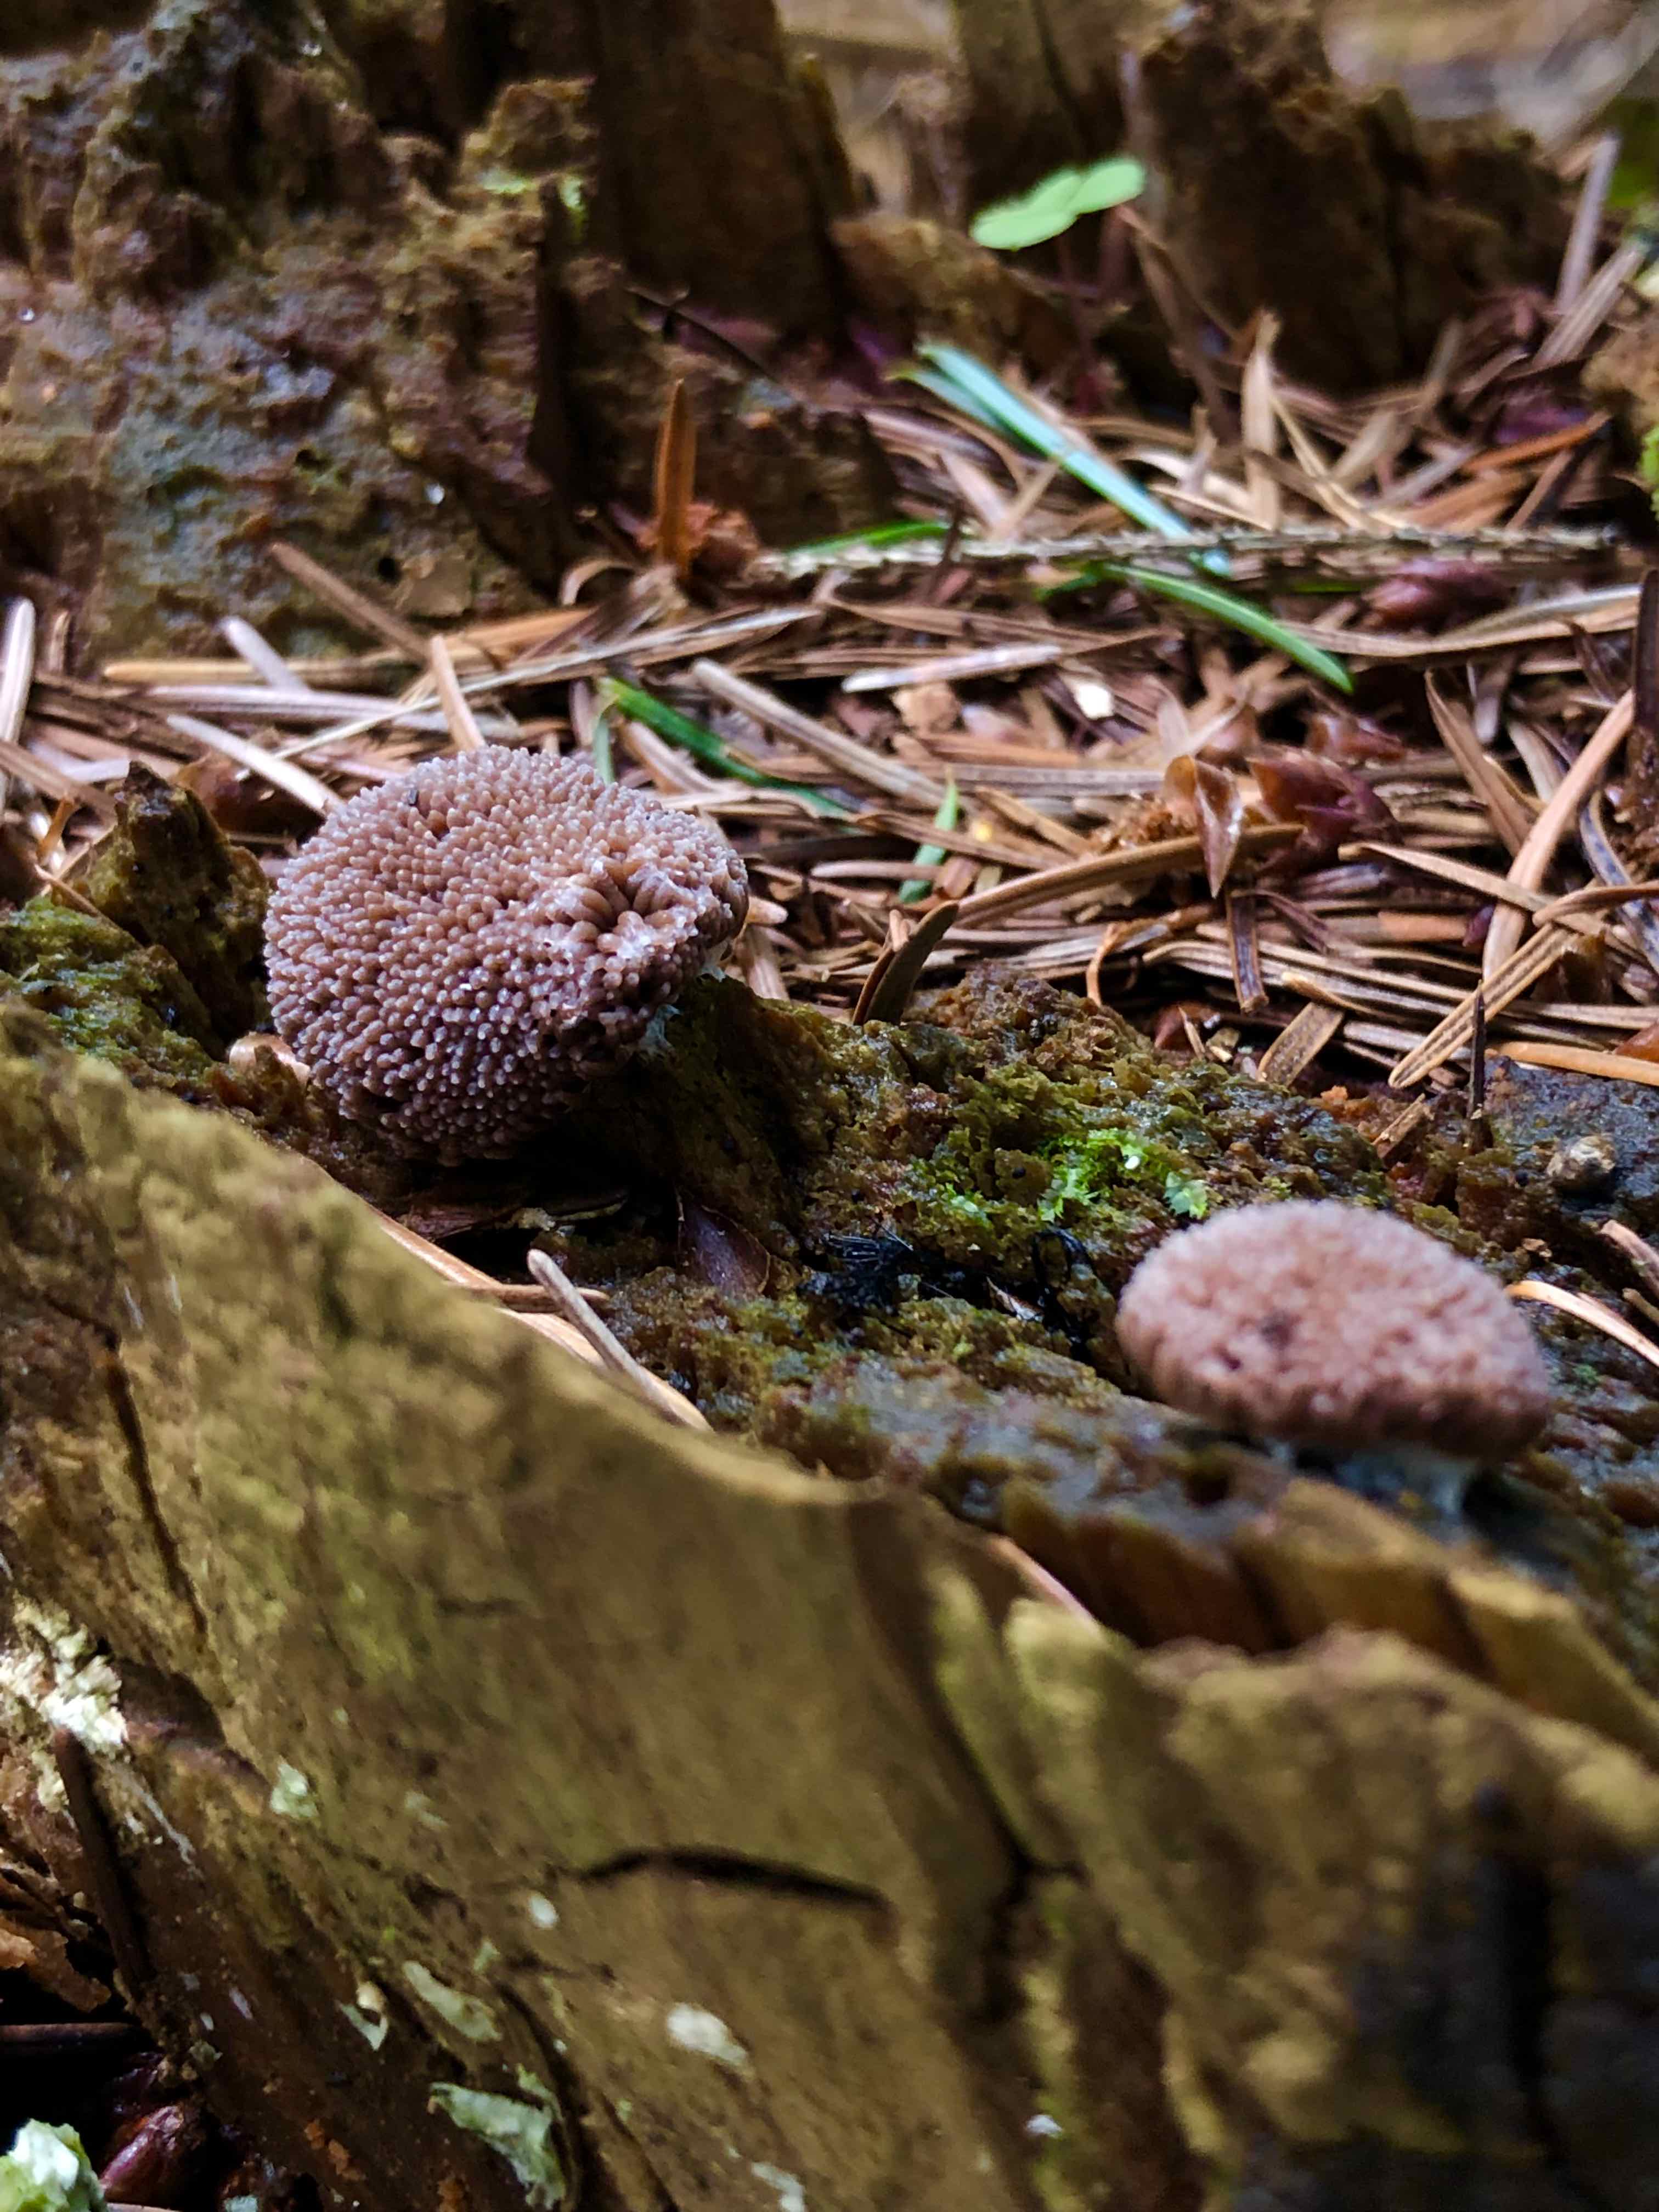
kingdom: Protozoa
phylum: Mycetozoa
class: Myxomycetes
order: Cribrariales
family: Tubiferaceae
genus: Tubifera
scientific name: Tubifera ferruginosa
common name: kanel-støvrør
